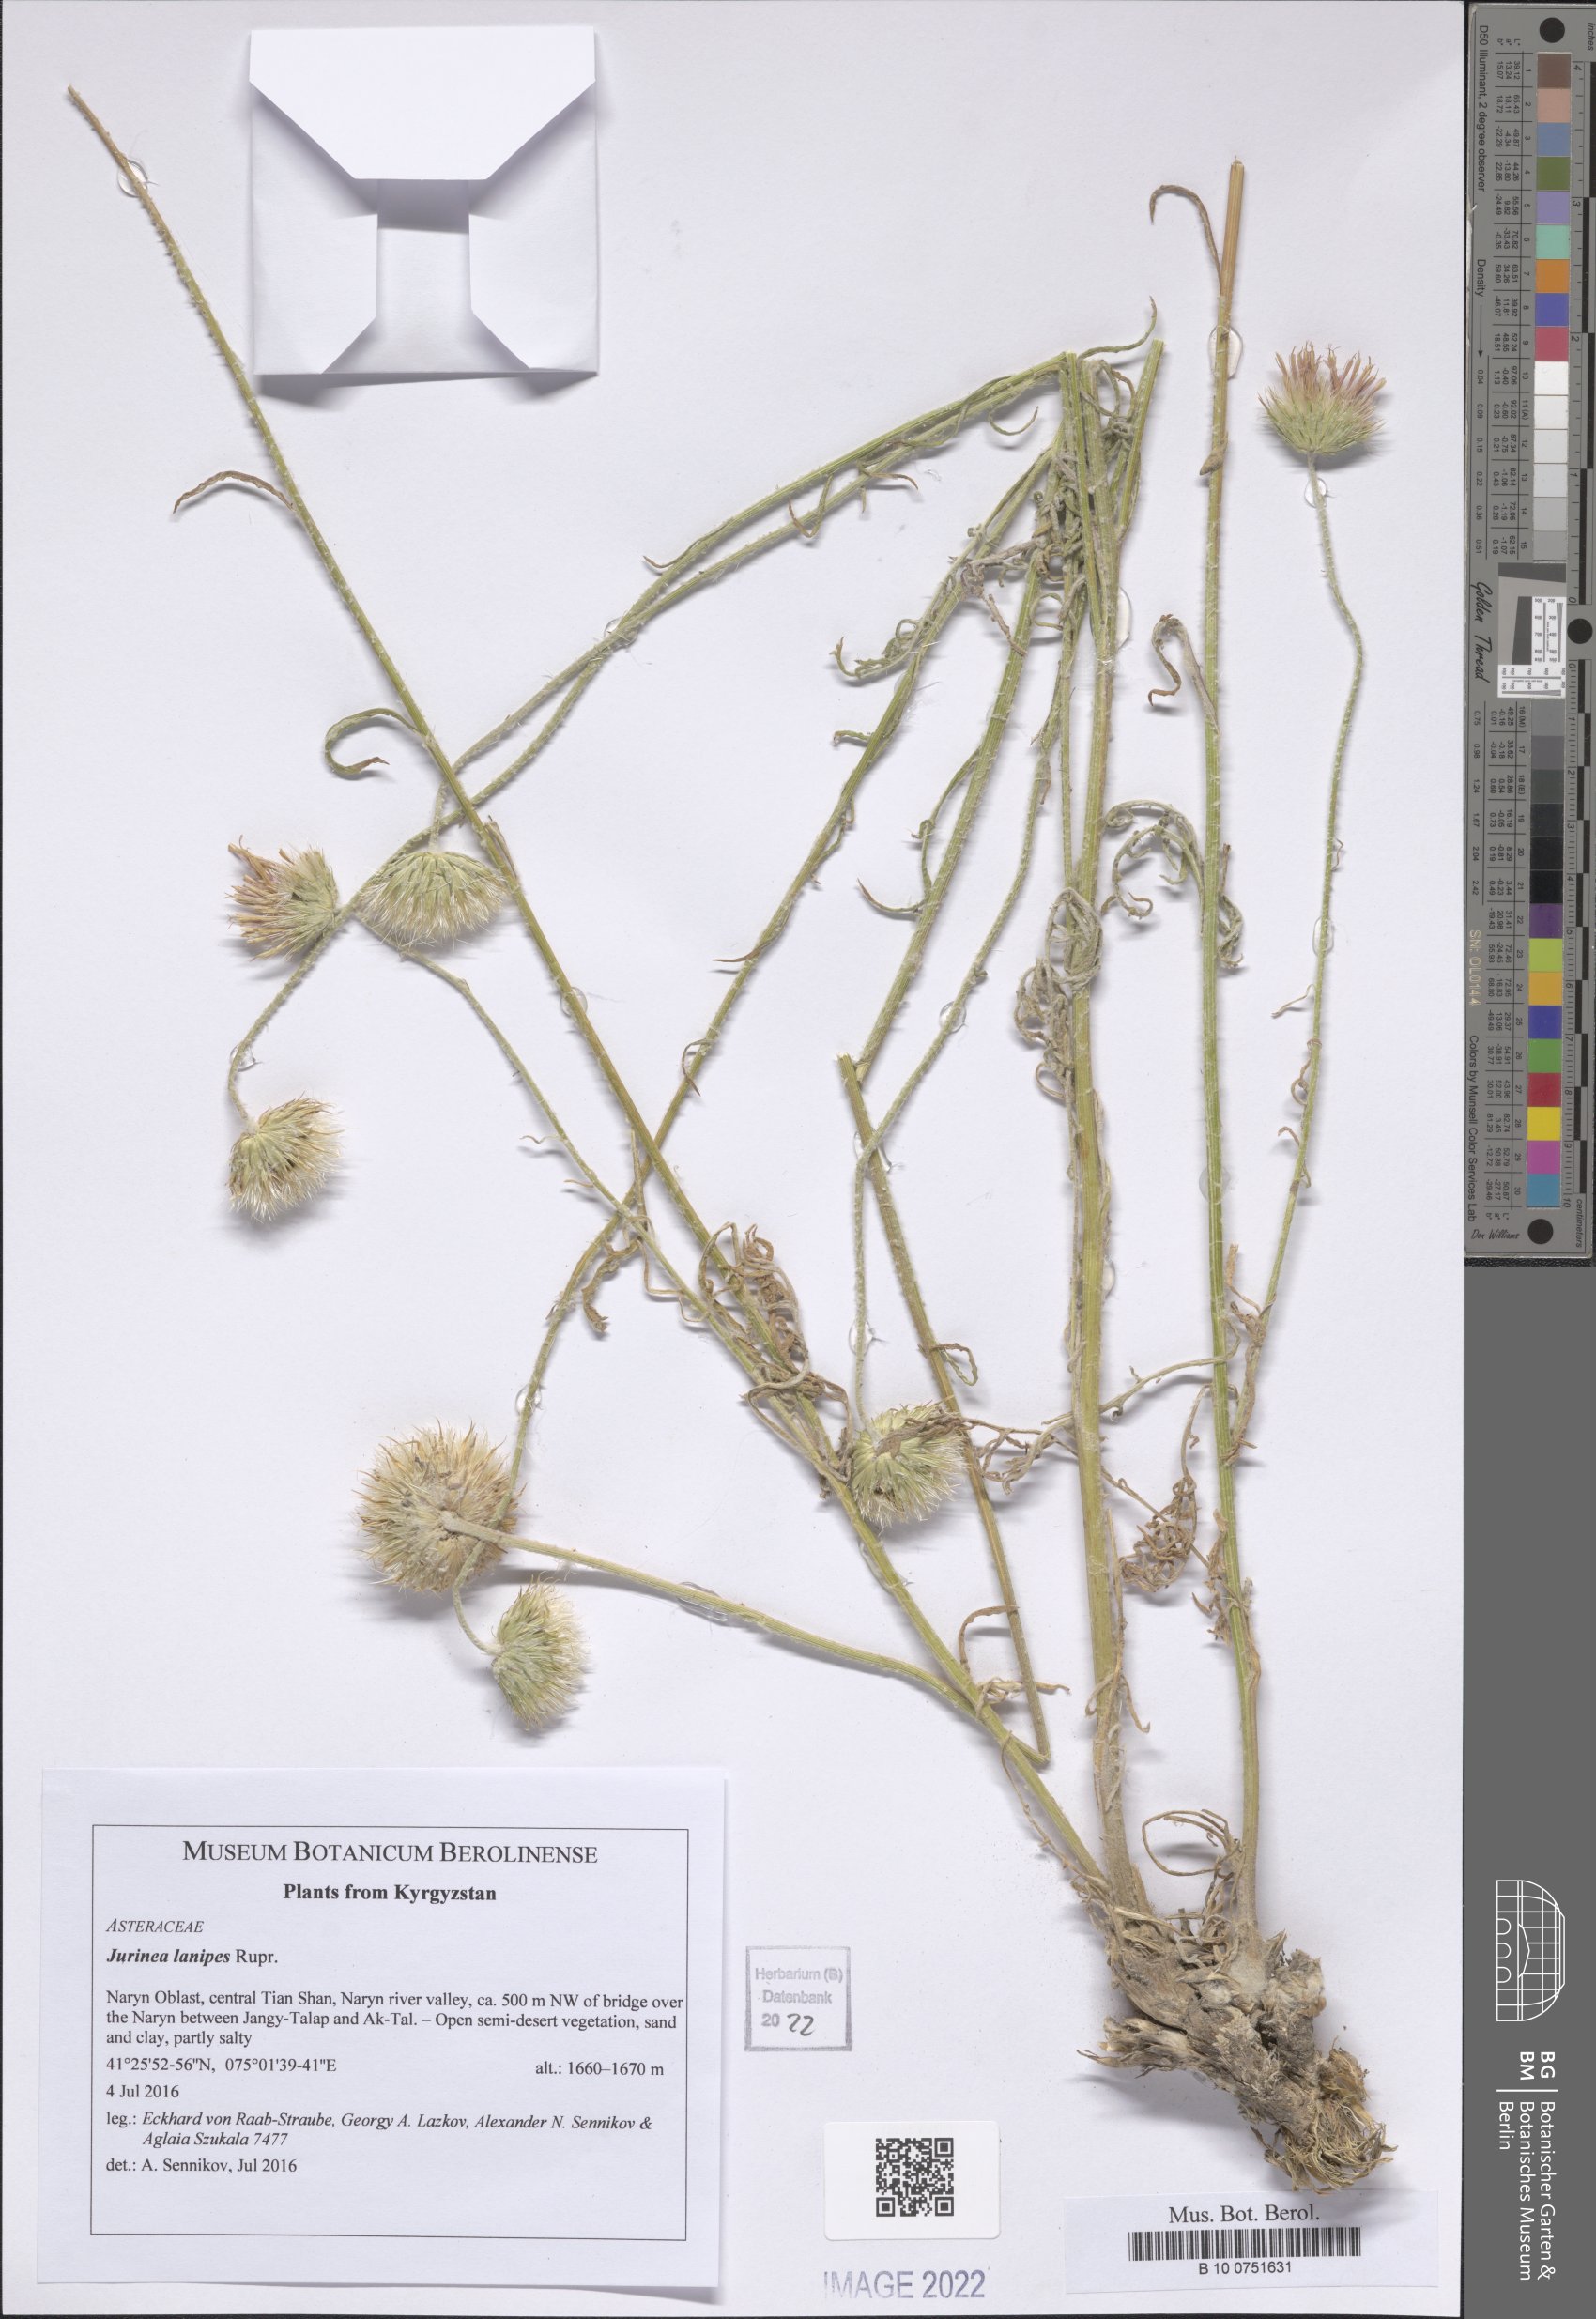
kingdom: Plantae
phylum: Tracheophyta
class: Magnoliopsida
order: Asterales
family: Asteraceae
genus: Jurinea
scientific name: Jurinea lanipes
